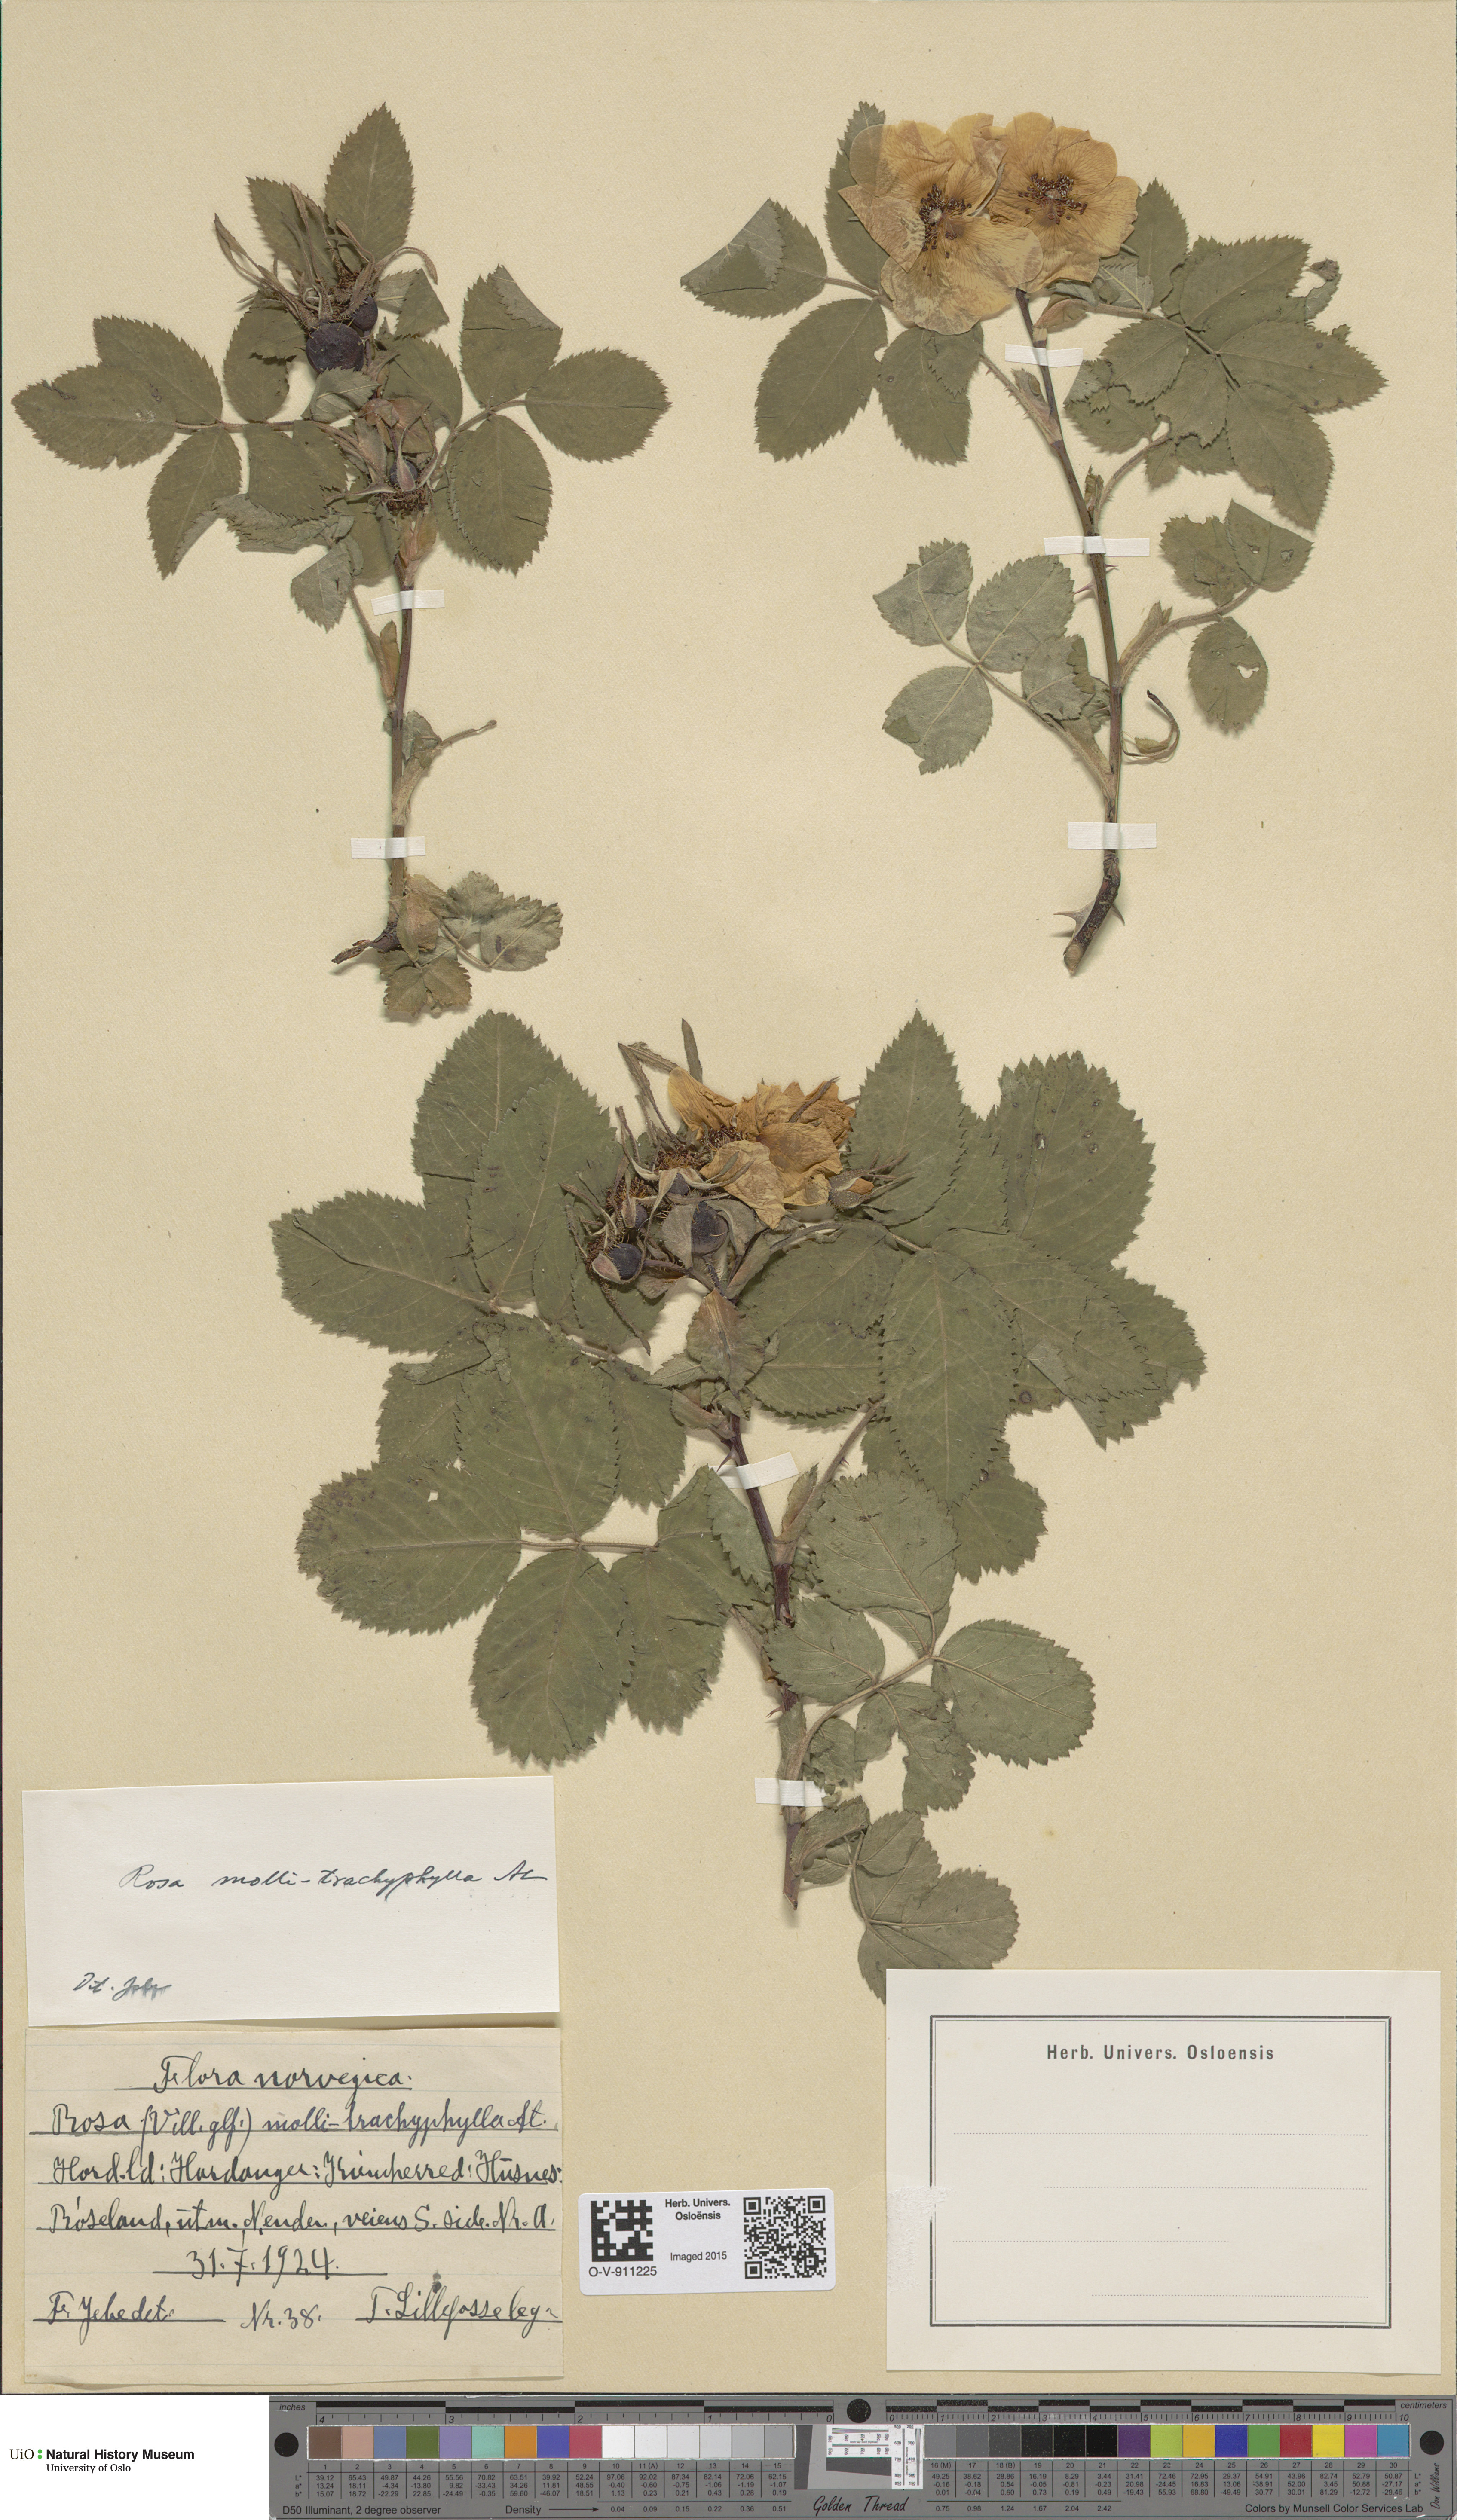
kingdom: Plantae
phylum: Tracheophyta
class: Magnoliopsida
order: Rosales
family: Rosaceae
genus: Rosa
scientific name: Rosa mollis
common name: Rose
